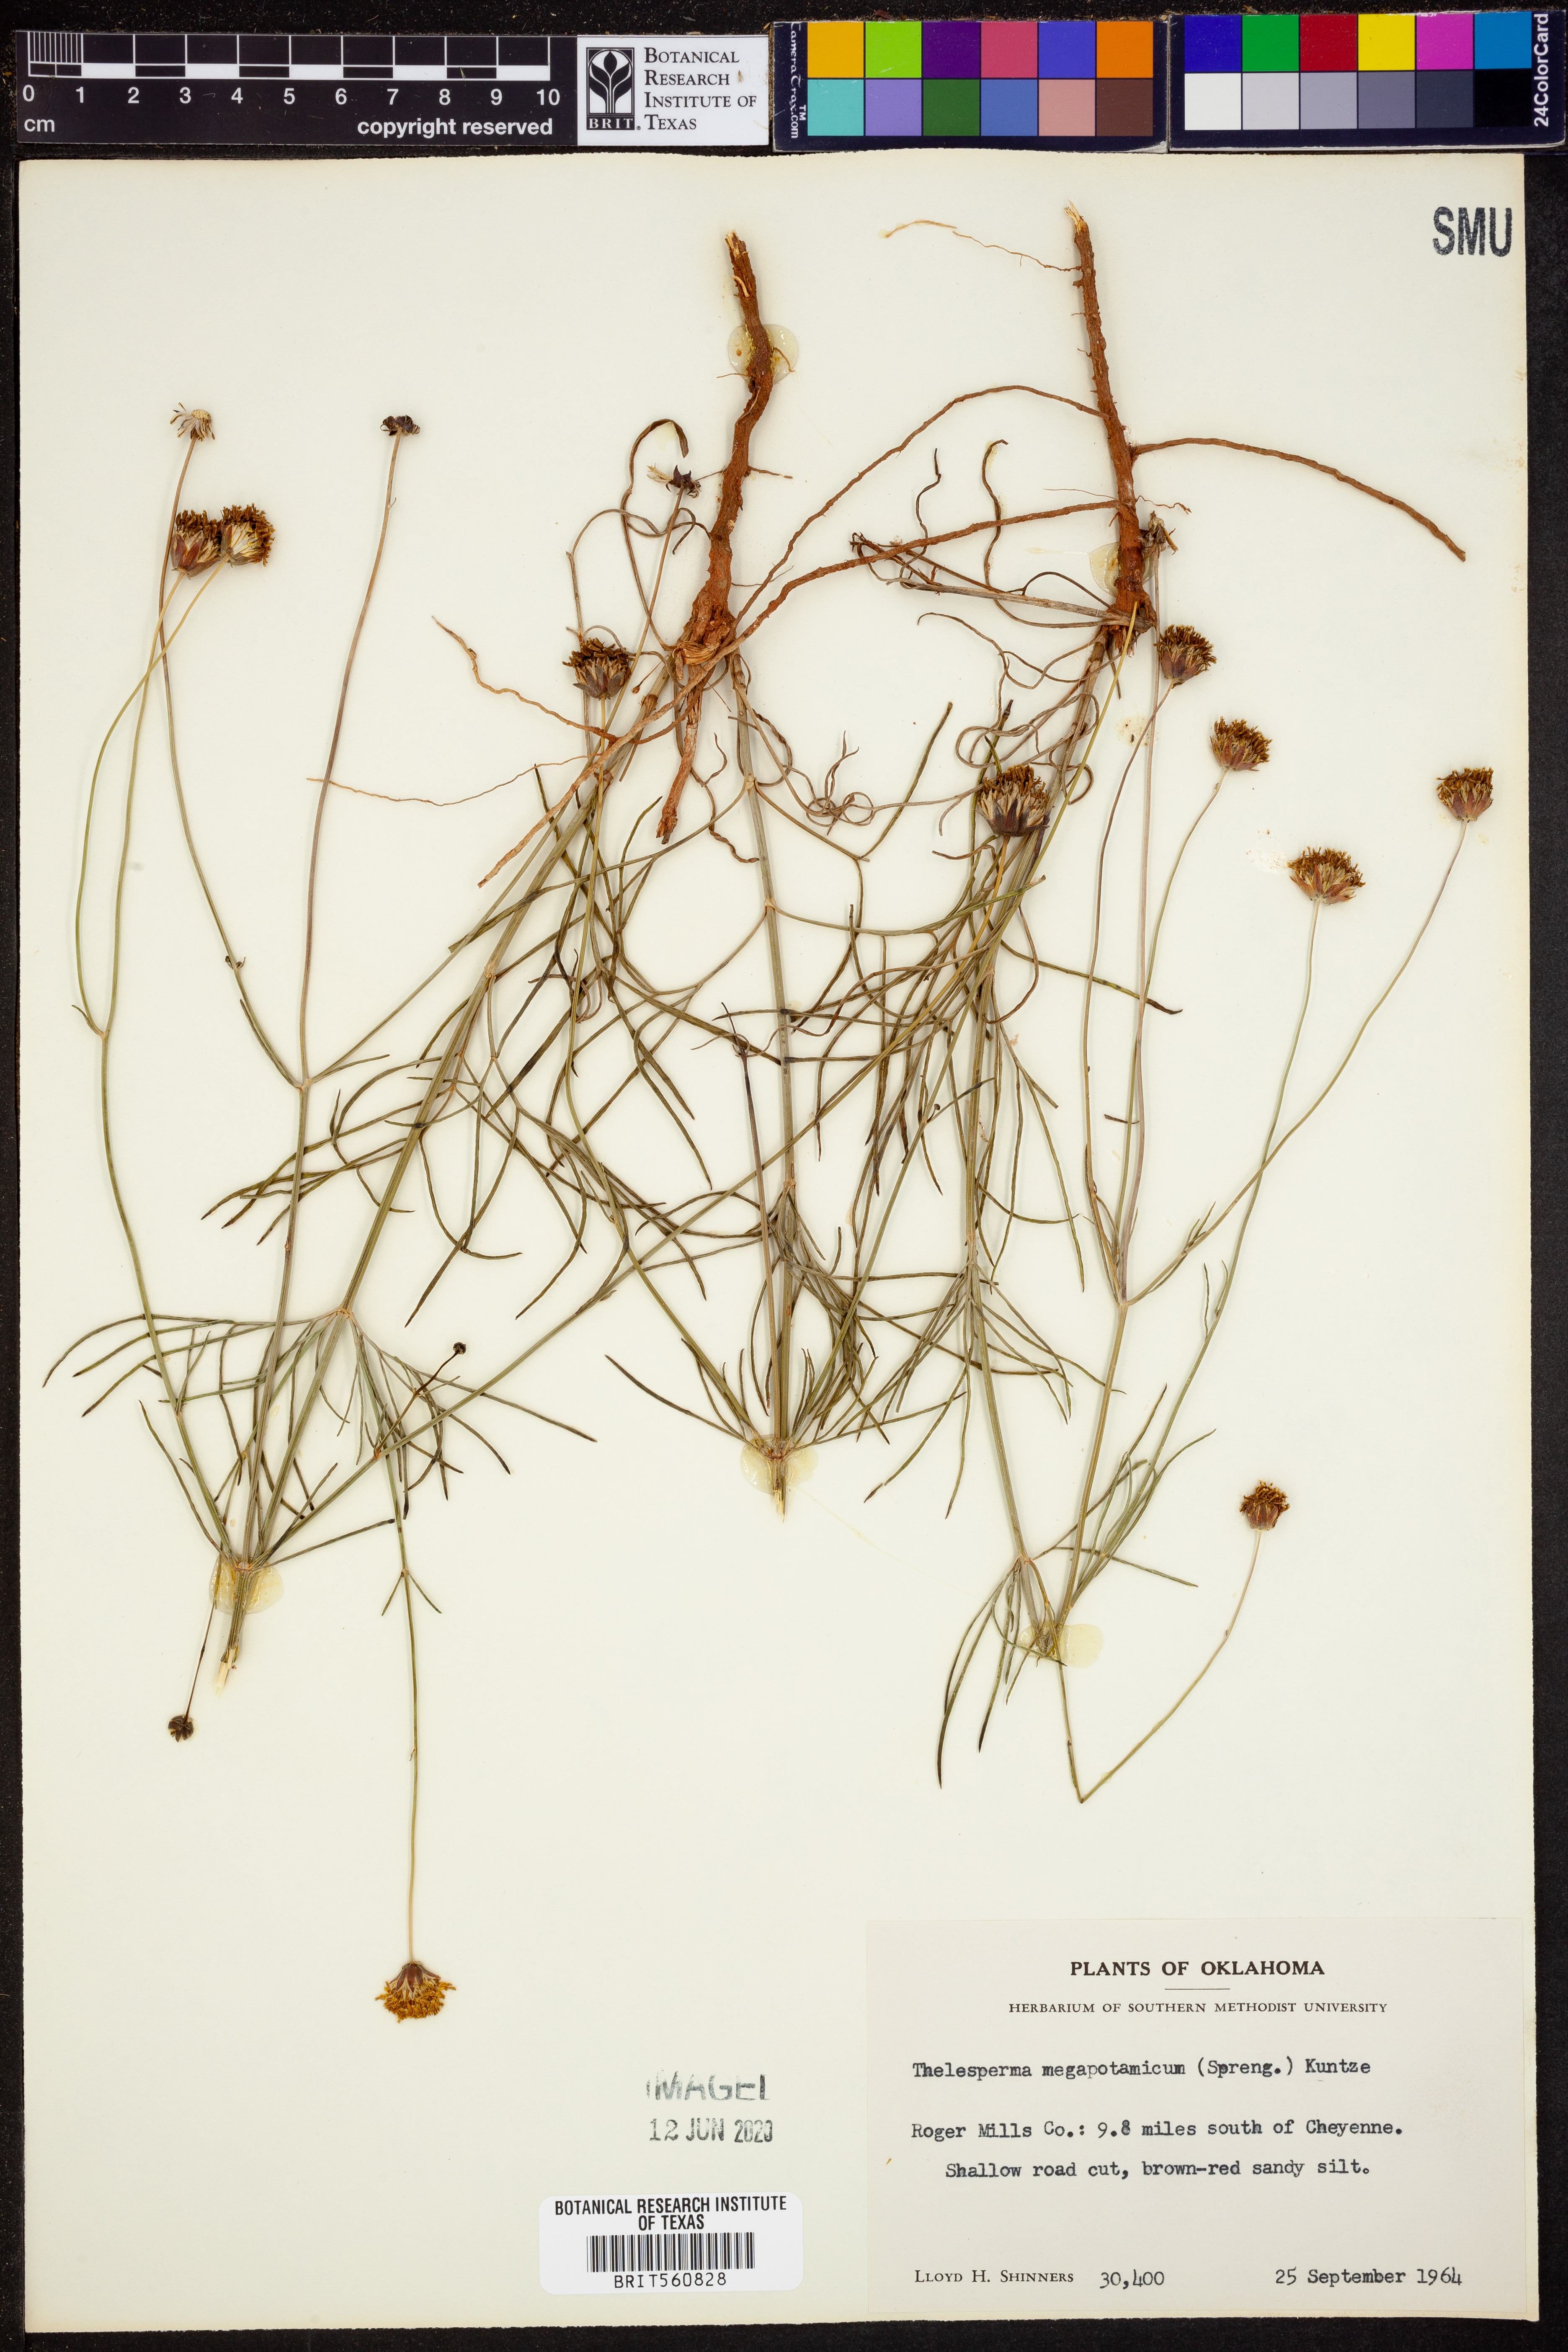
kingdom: Plantae
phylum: Tracheophyta
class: Magnoliopsida
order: Asterales
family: Asteraceae
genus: Thelesperma
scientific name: Thelesperma megapotamicum
